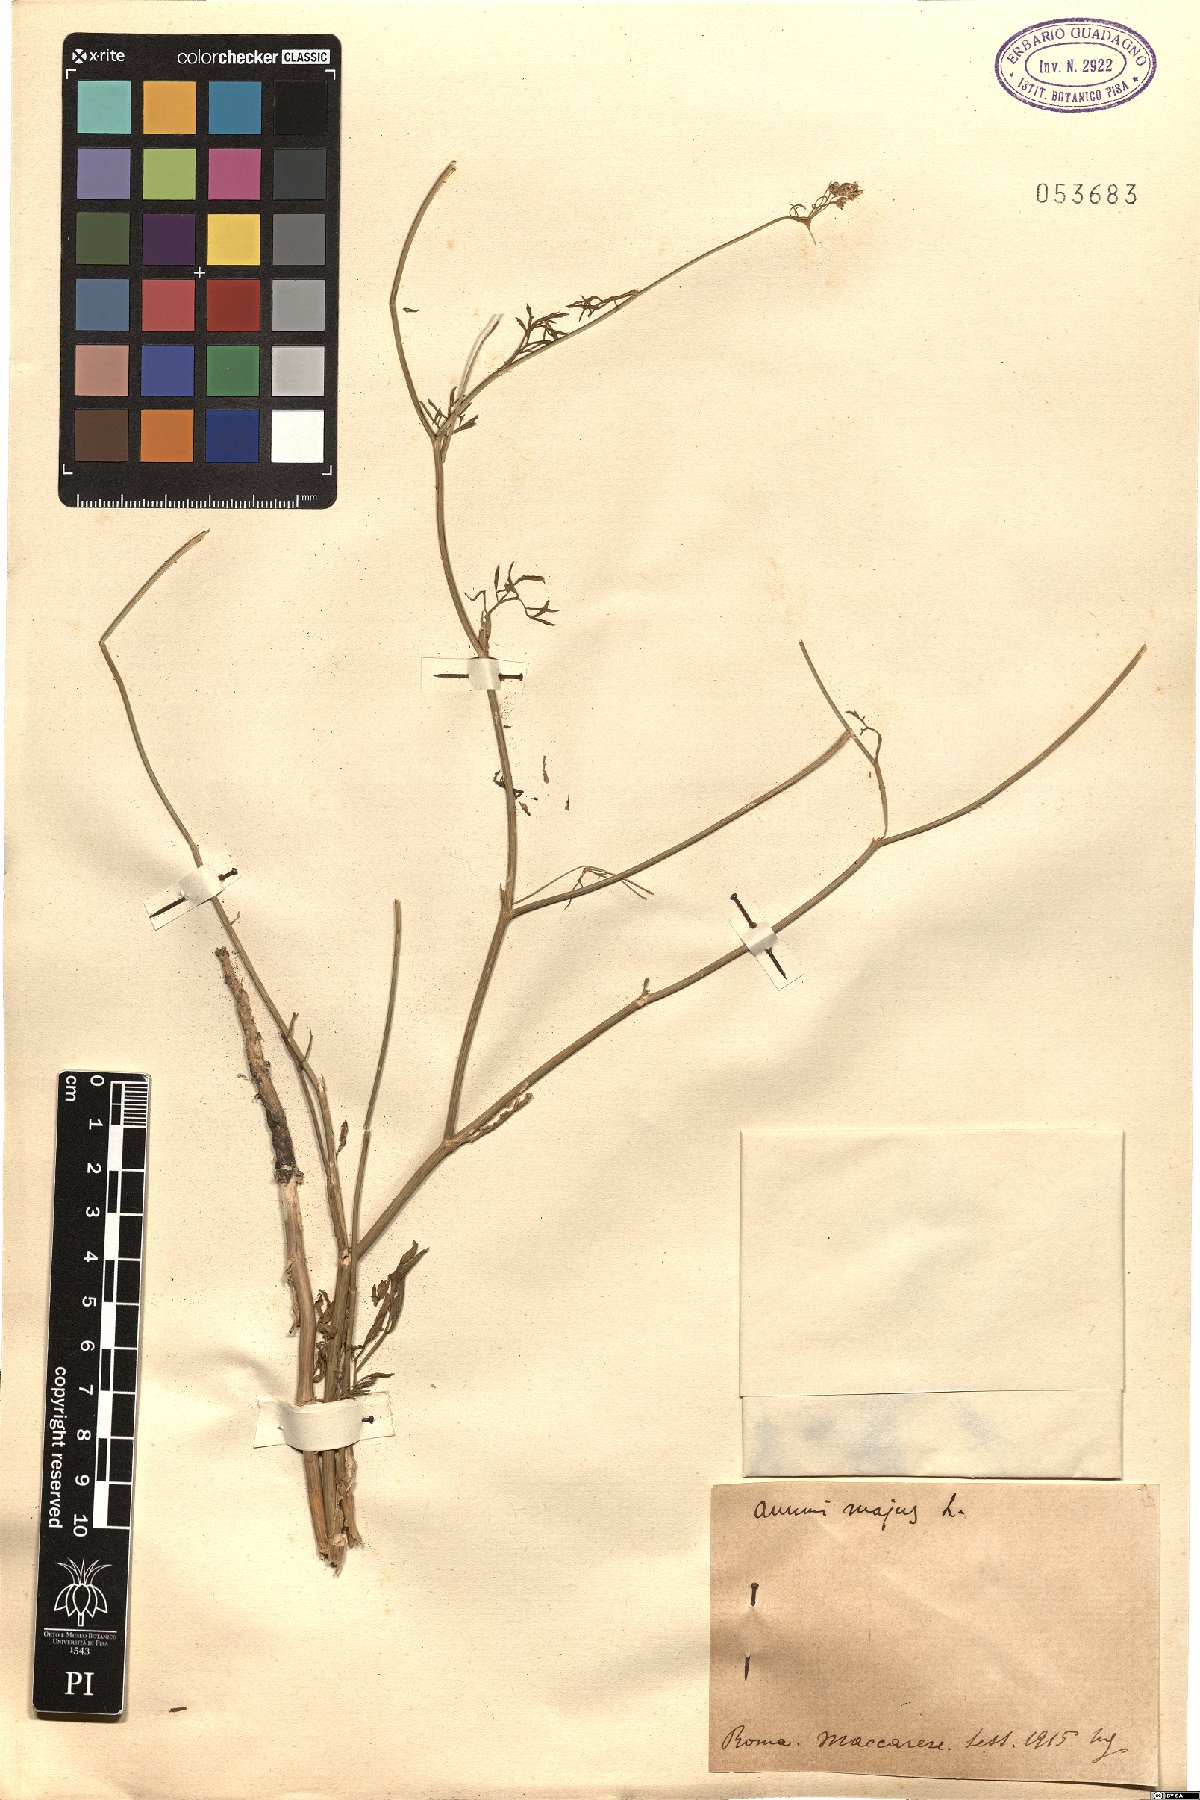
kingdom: Plantae
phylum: Tracheophyta
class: Magnoliopsida
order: Apiales
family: Apiaceae
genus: Ammi
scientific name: Ammi majus
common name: Bullwort
